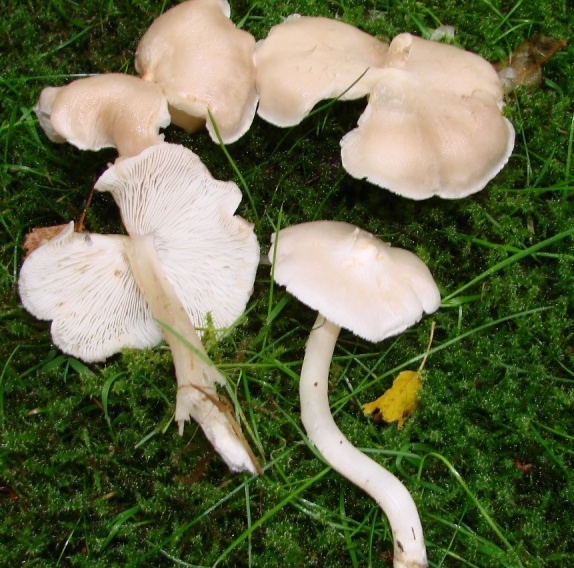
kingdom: Fungi
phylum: Basidiomycota
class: Agaricomycetes
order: Agaricales
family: Tricholomataceae
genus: Tricholoma
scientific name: Tricholoma argyraceum
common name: spids ridderhat
